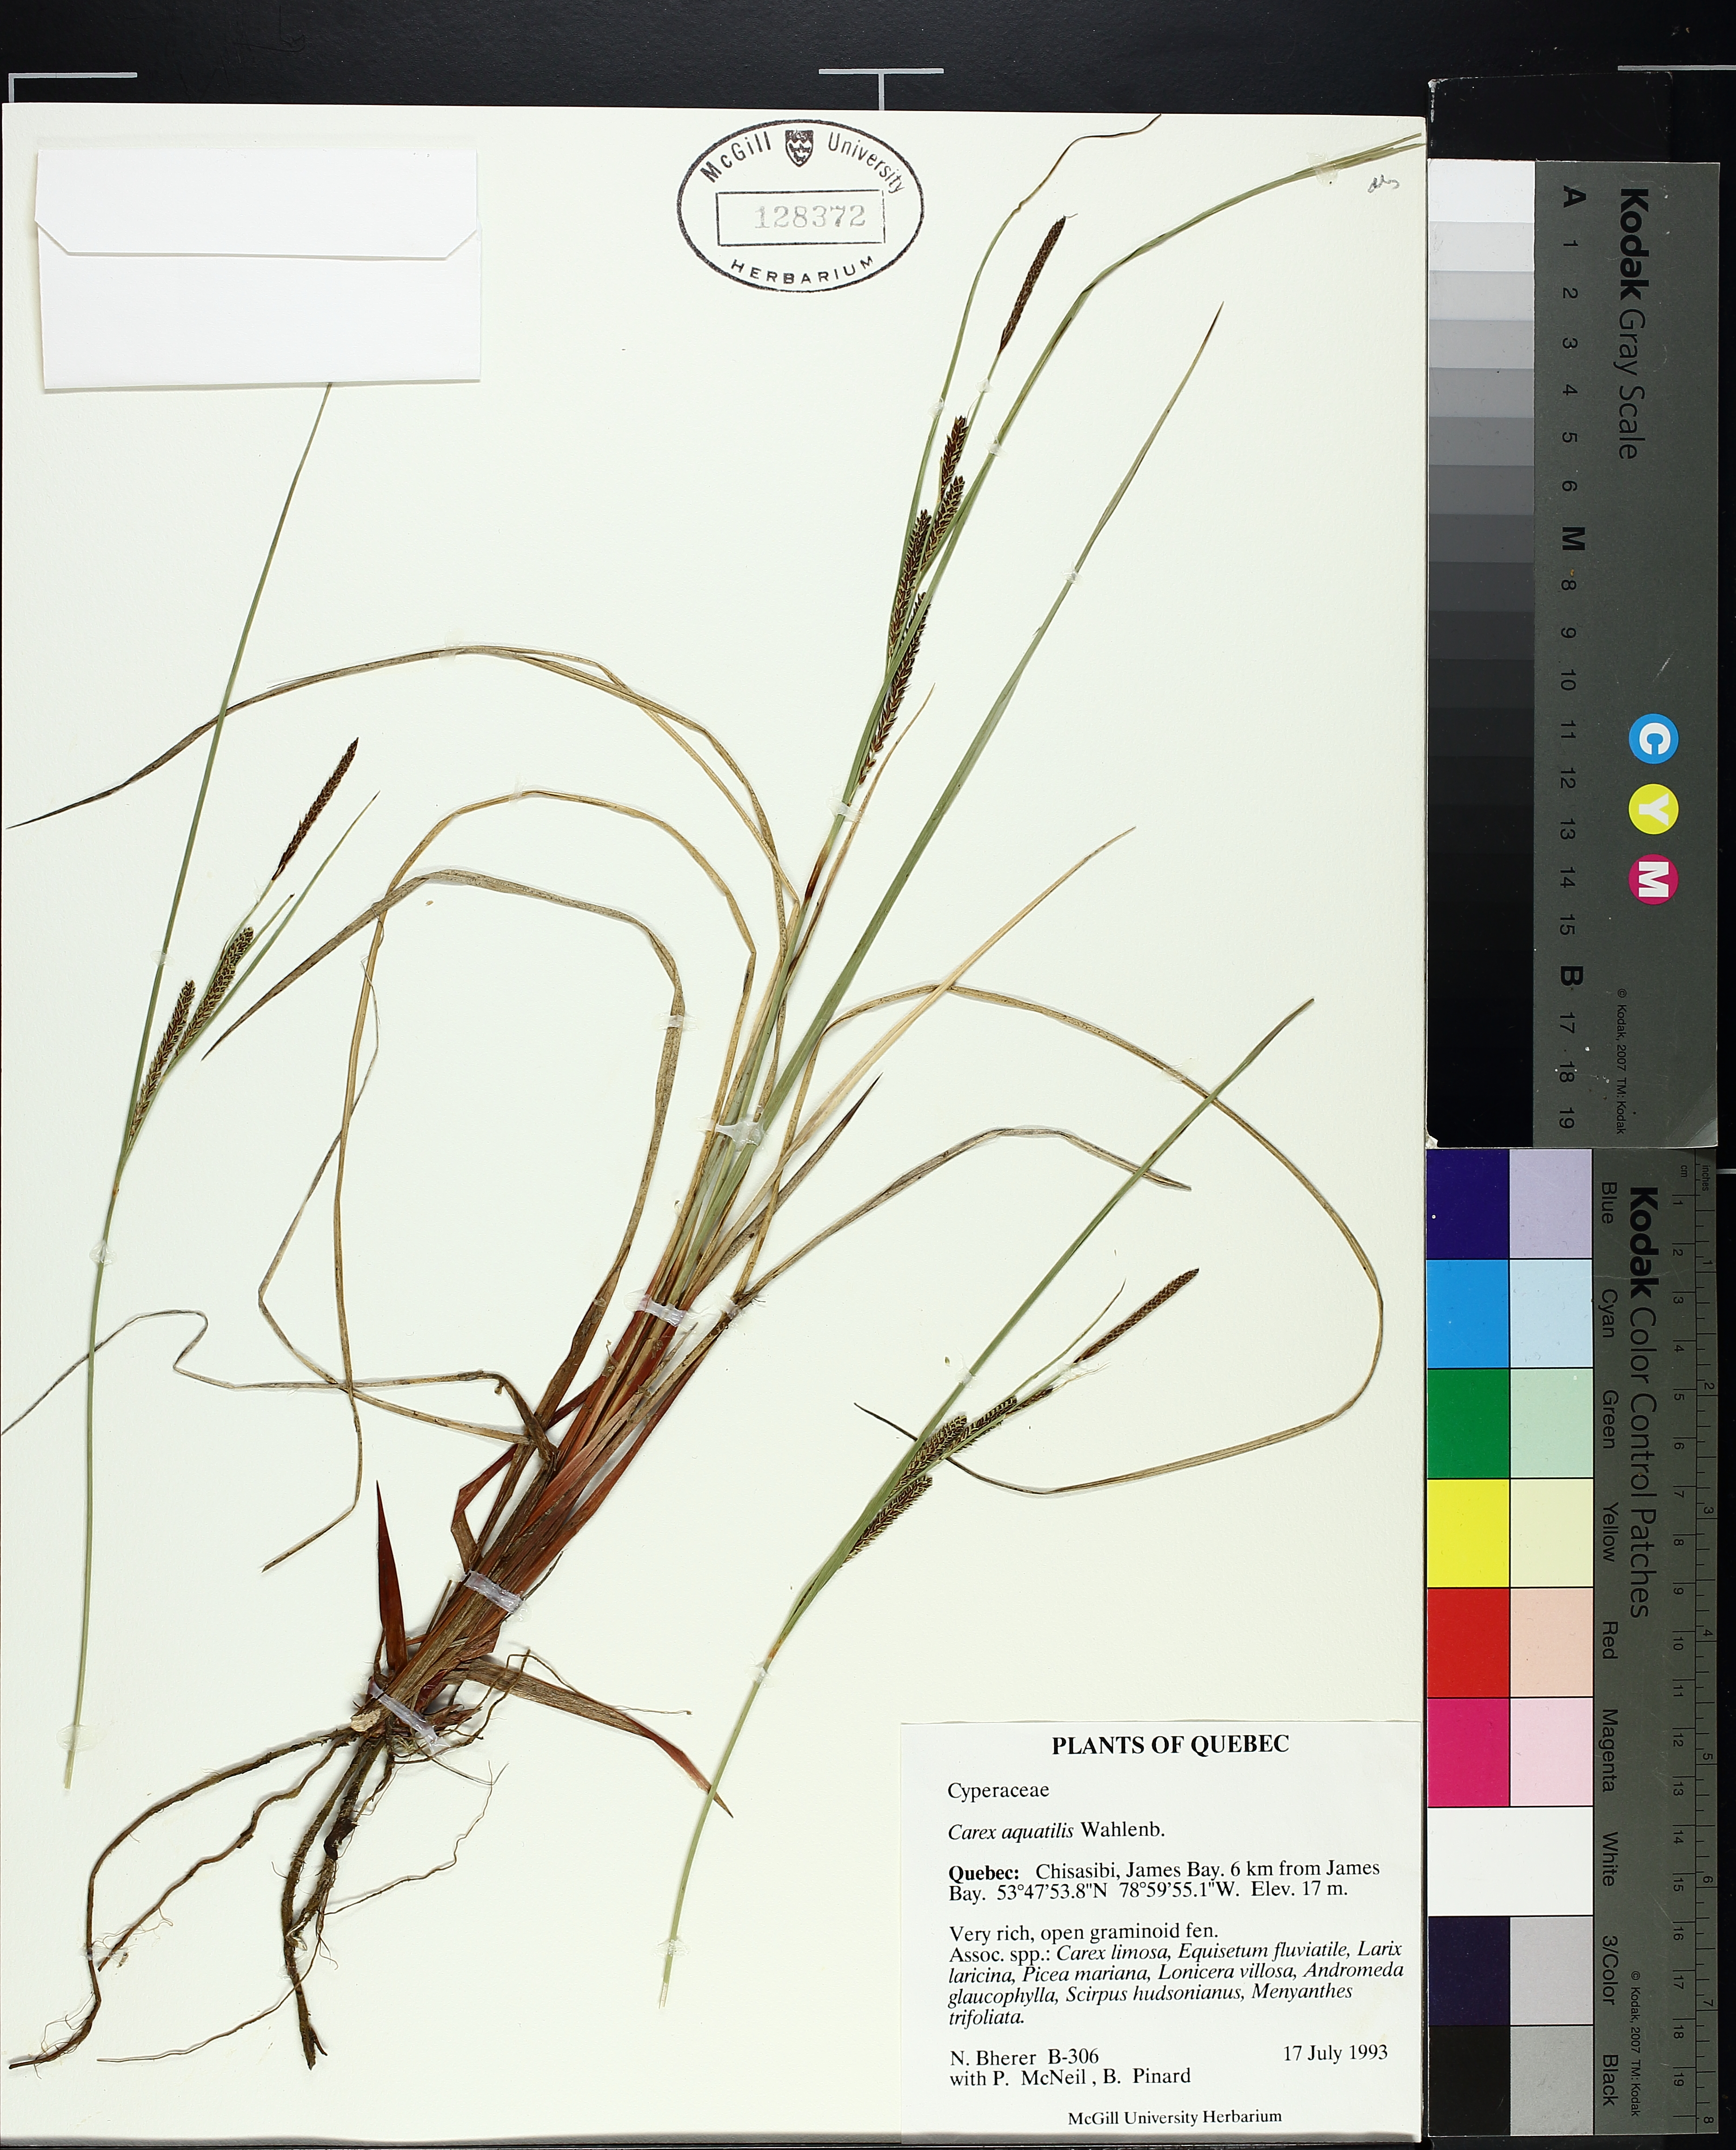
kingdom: Plantae
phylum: Tracheophyta
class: Liliopsida
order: Poales
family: Cyperaceae
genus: Carex
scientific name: Carex aquatilis
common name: Water sedge
